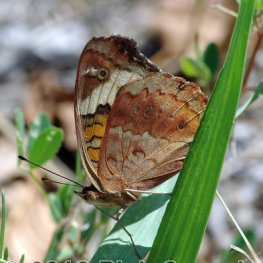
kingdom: Animalia
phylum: Arthropoda
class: Insecta
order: Lepidoptera
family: Nymphalidae
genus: Junonia
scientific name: Junonia coenia
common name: Common Buckeye
